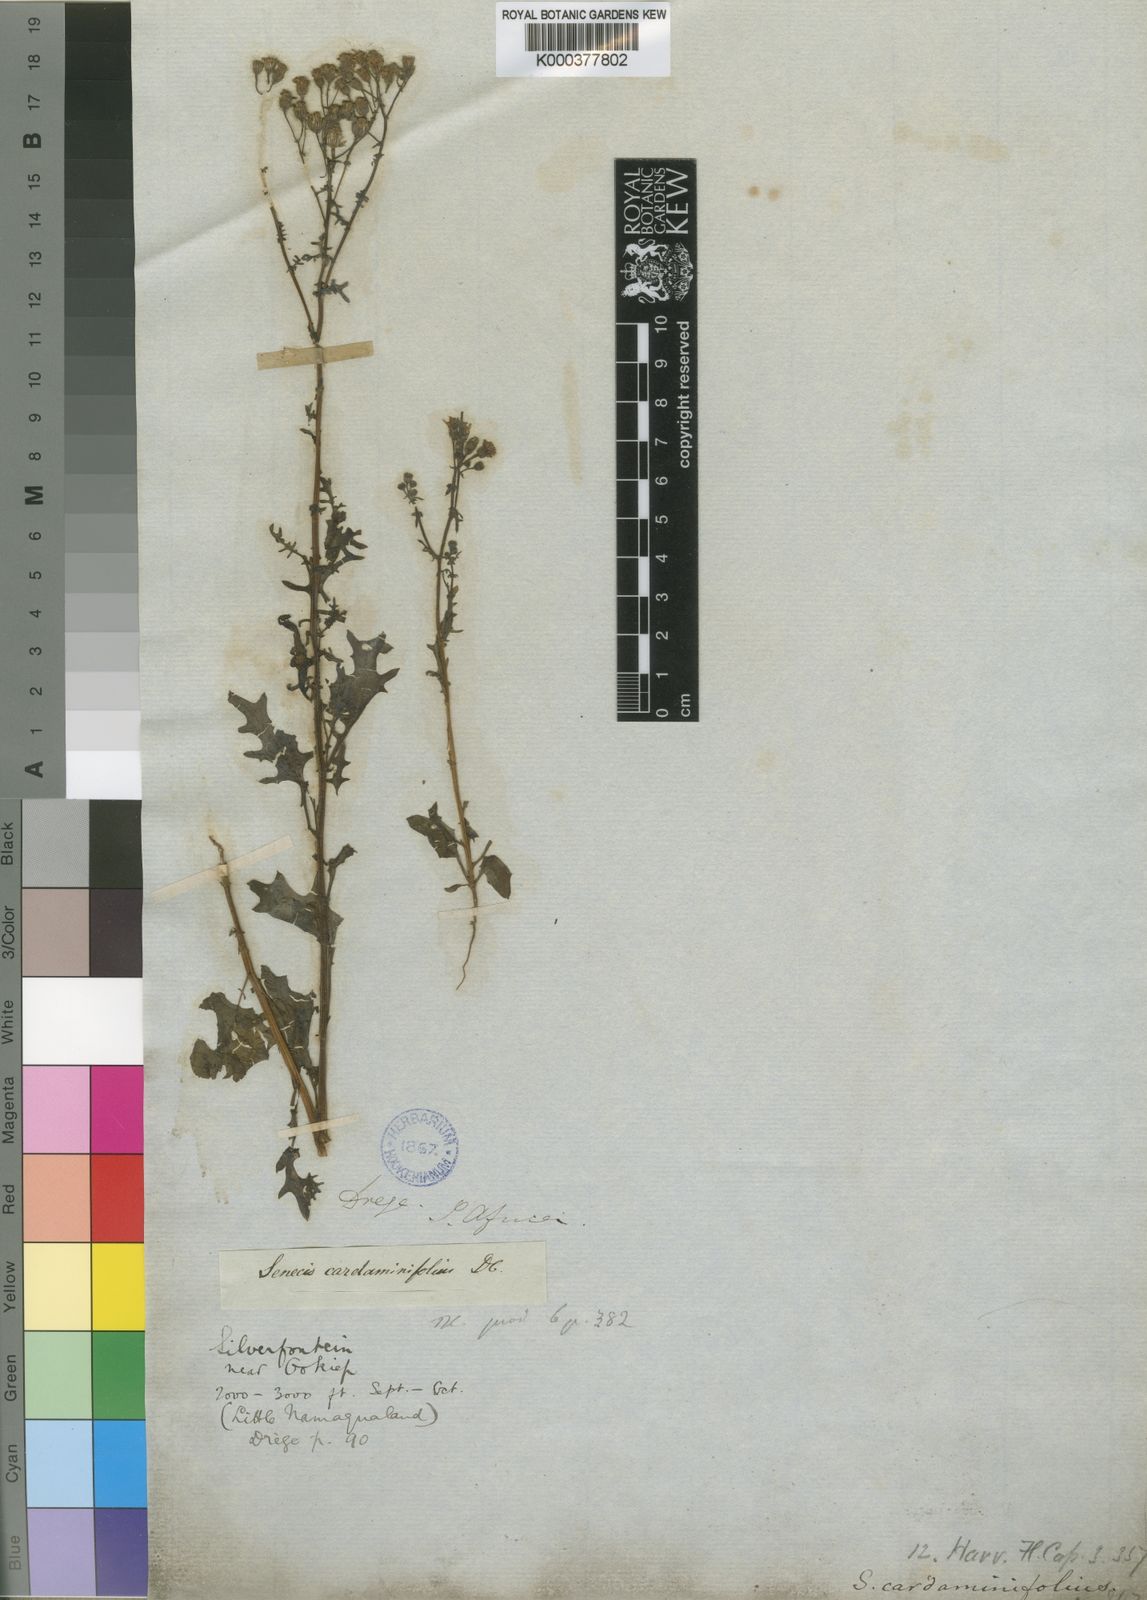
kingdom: Plantae
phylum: Tracheophyta
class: Magnoliopsida
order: Asterales
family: Asteraceae
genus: Senecio
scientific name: Senecio
